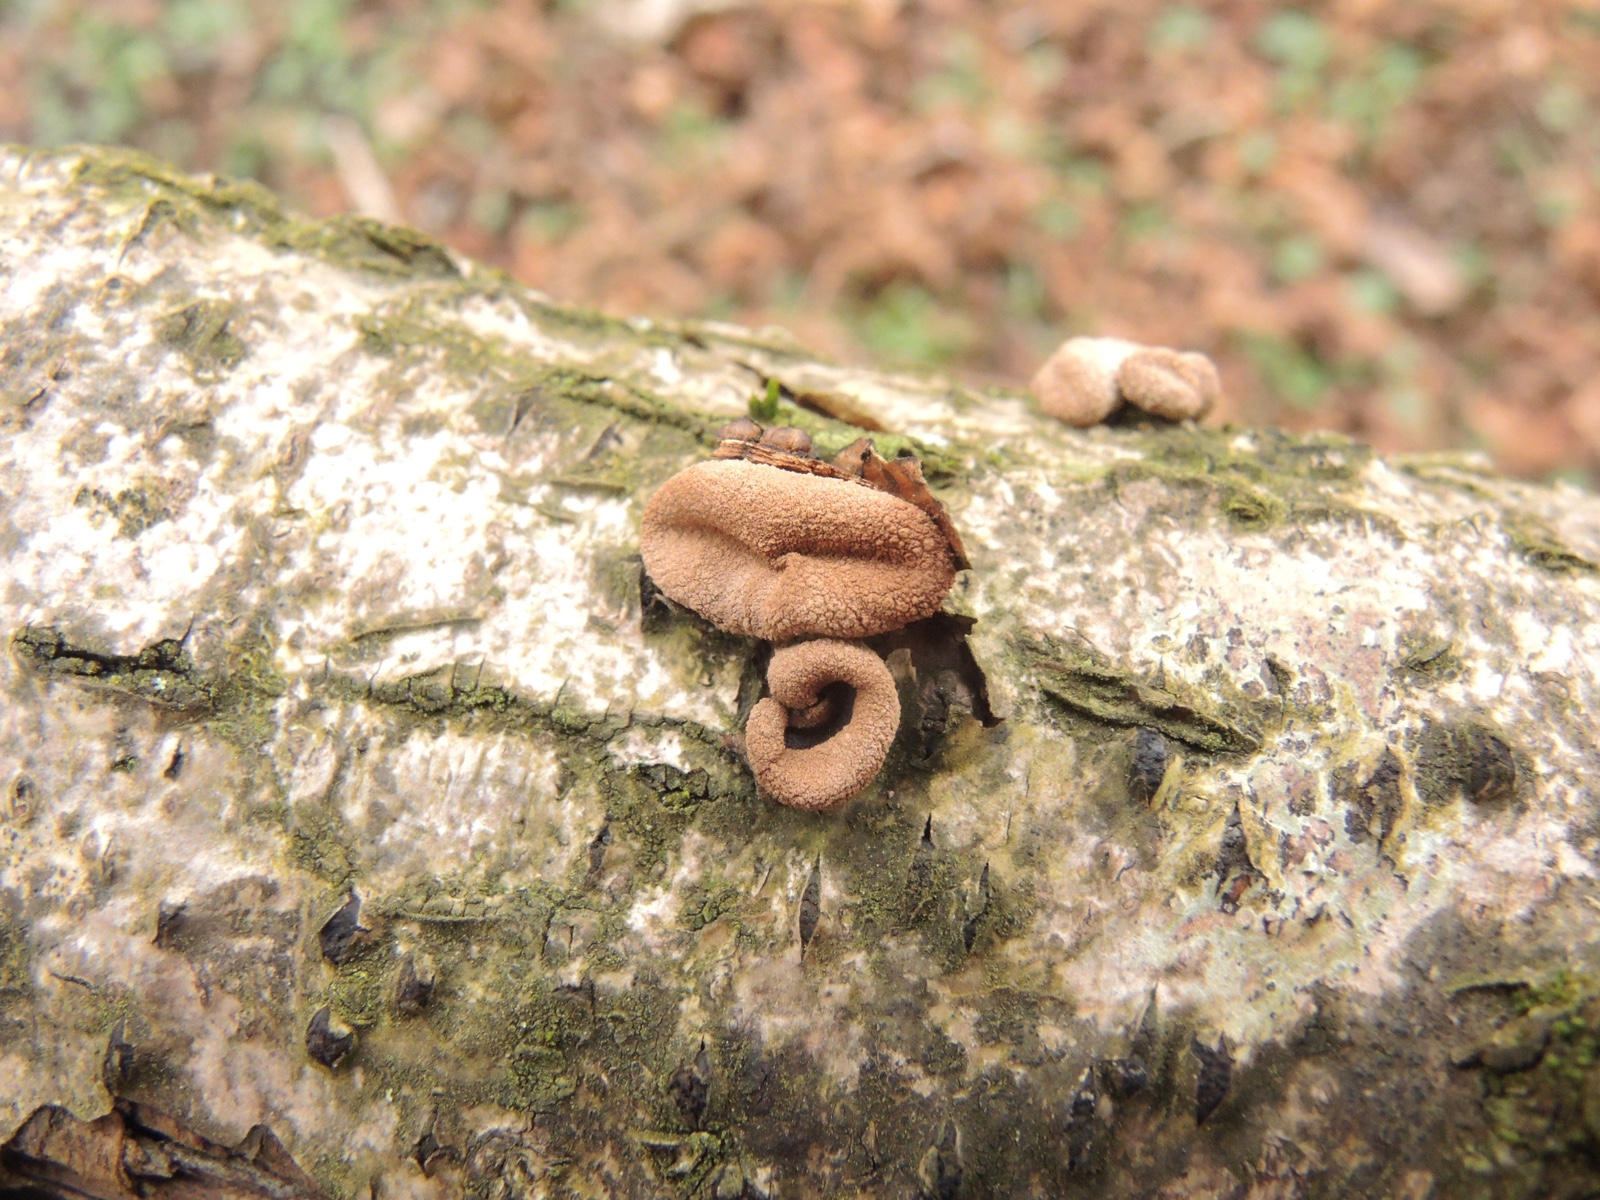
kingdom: Fungi
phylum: Ascomycota
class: Leotiomycetes
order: Helotiales
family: Cenangiaceae
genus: Encoelia
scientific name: Encoelia furfuracea
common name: hassel-læderskive
